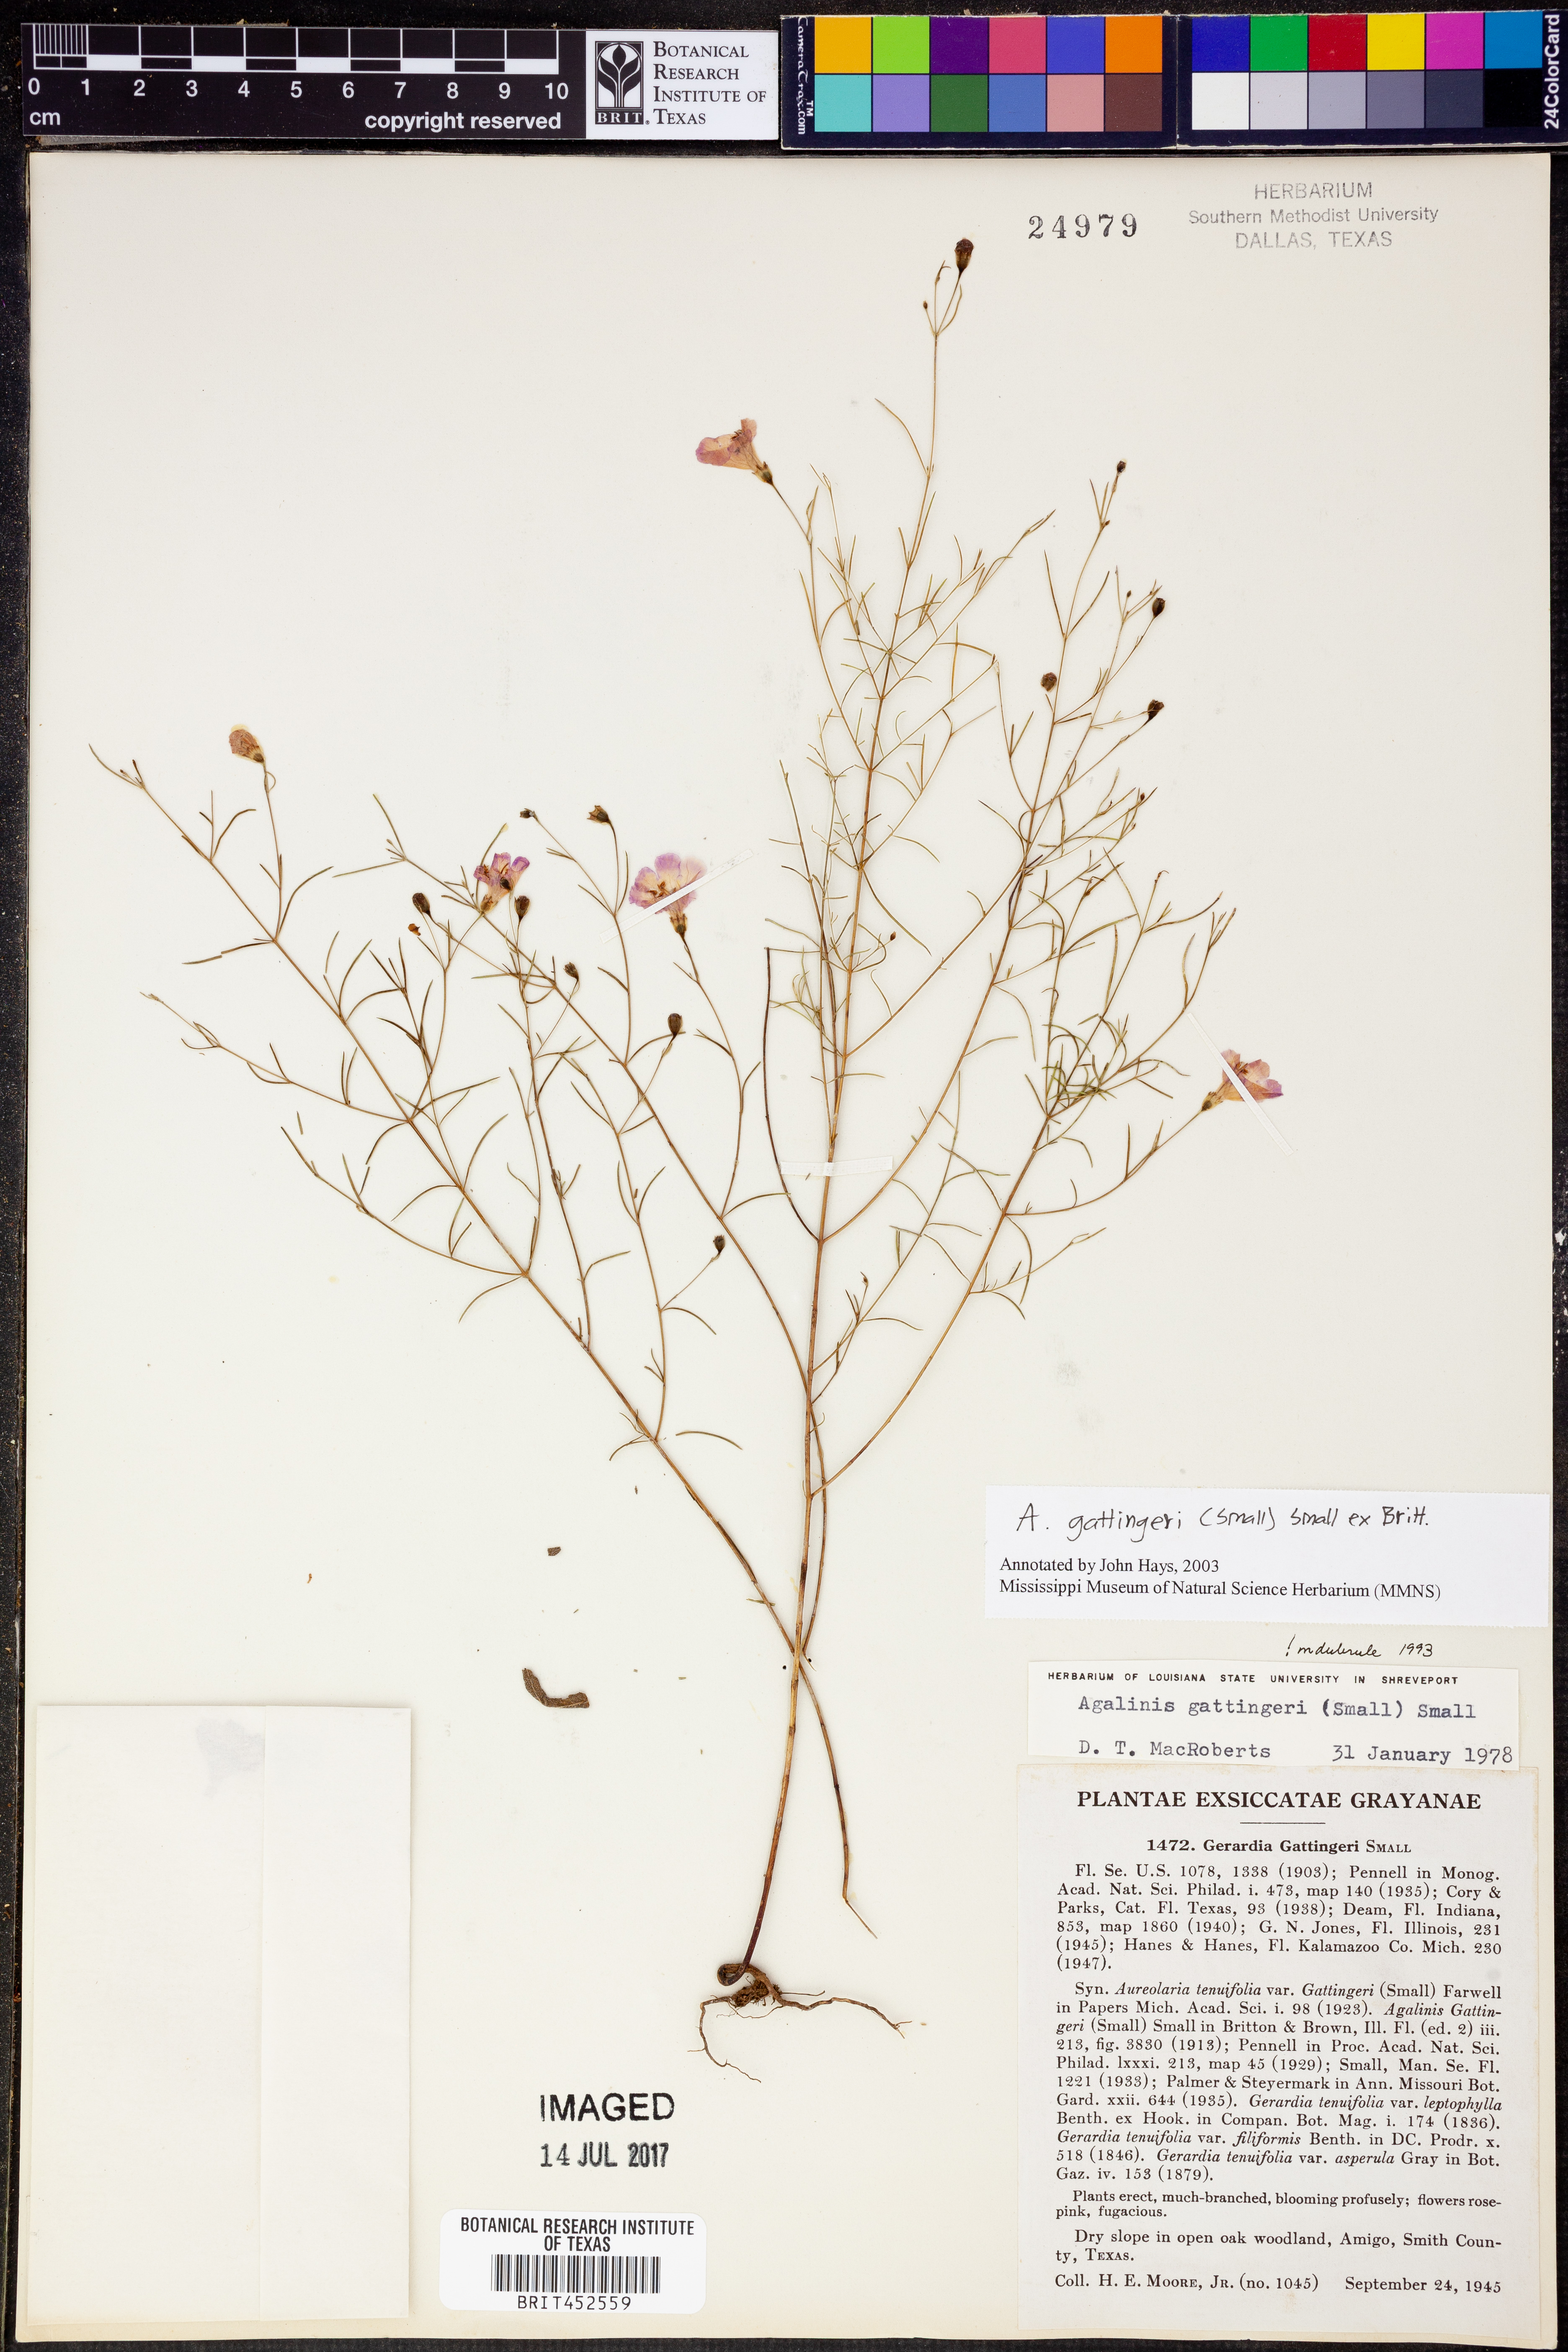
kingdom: Plantae
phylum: Tracheophyta
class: Magnoliopsida
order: Lamiales
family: Orobanchaceae
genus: Agalinis
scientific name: Agalinis gattingeri
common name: Gattinger's agalinis
